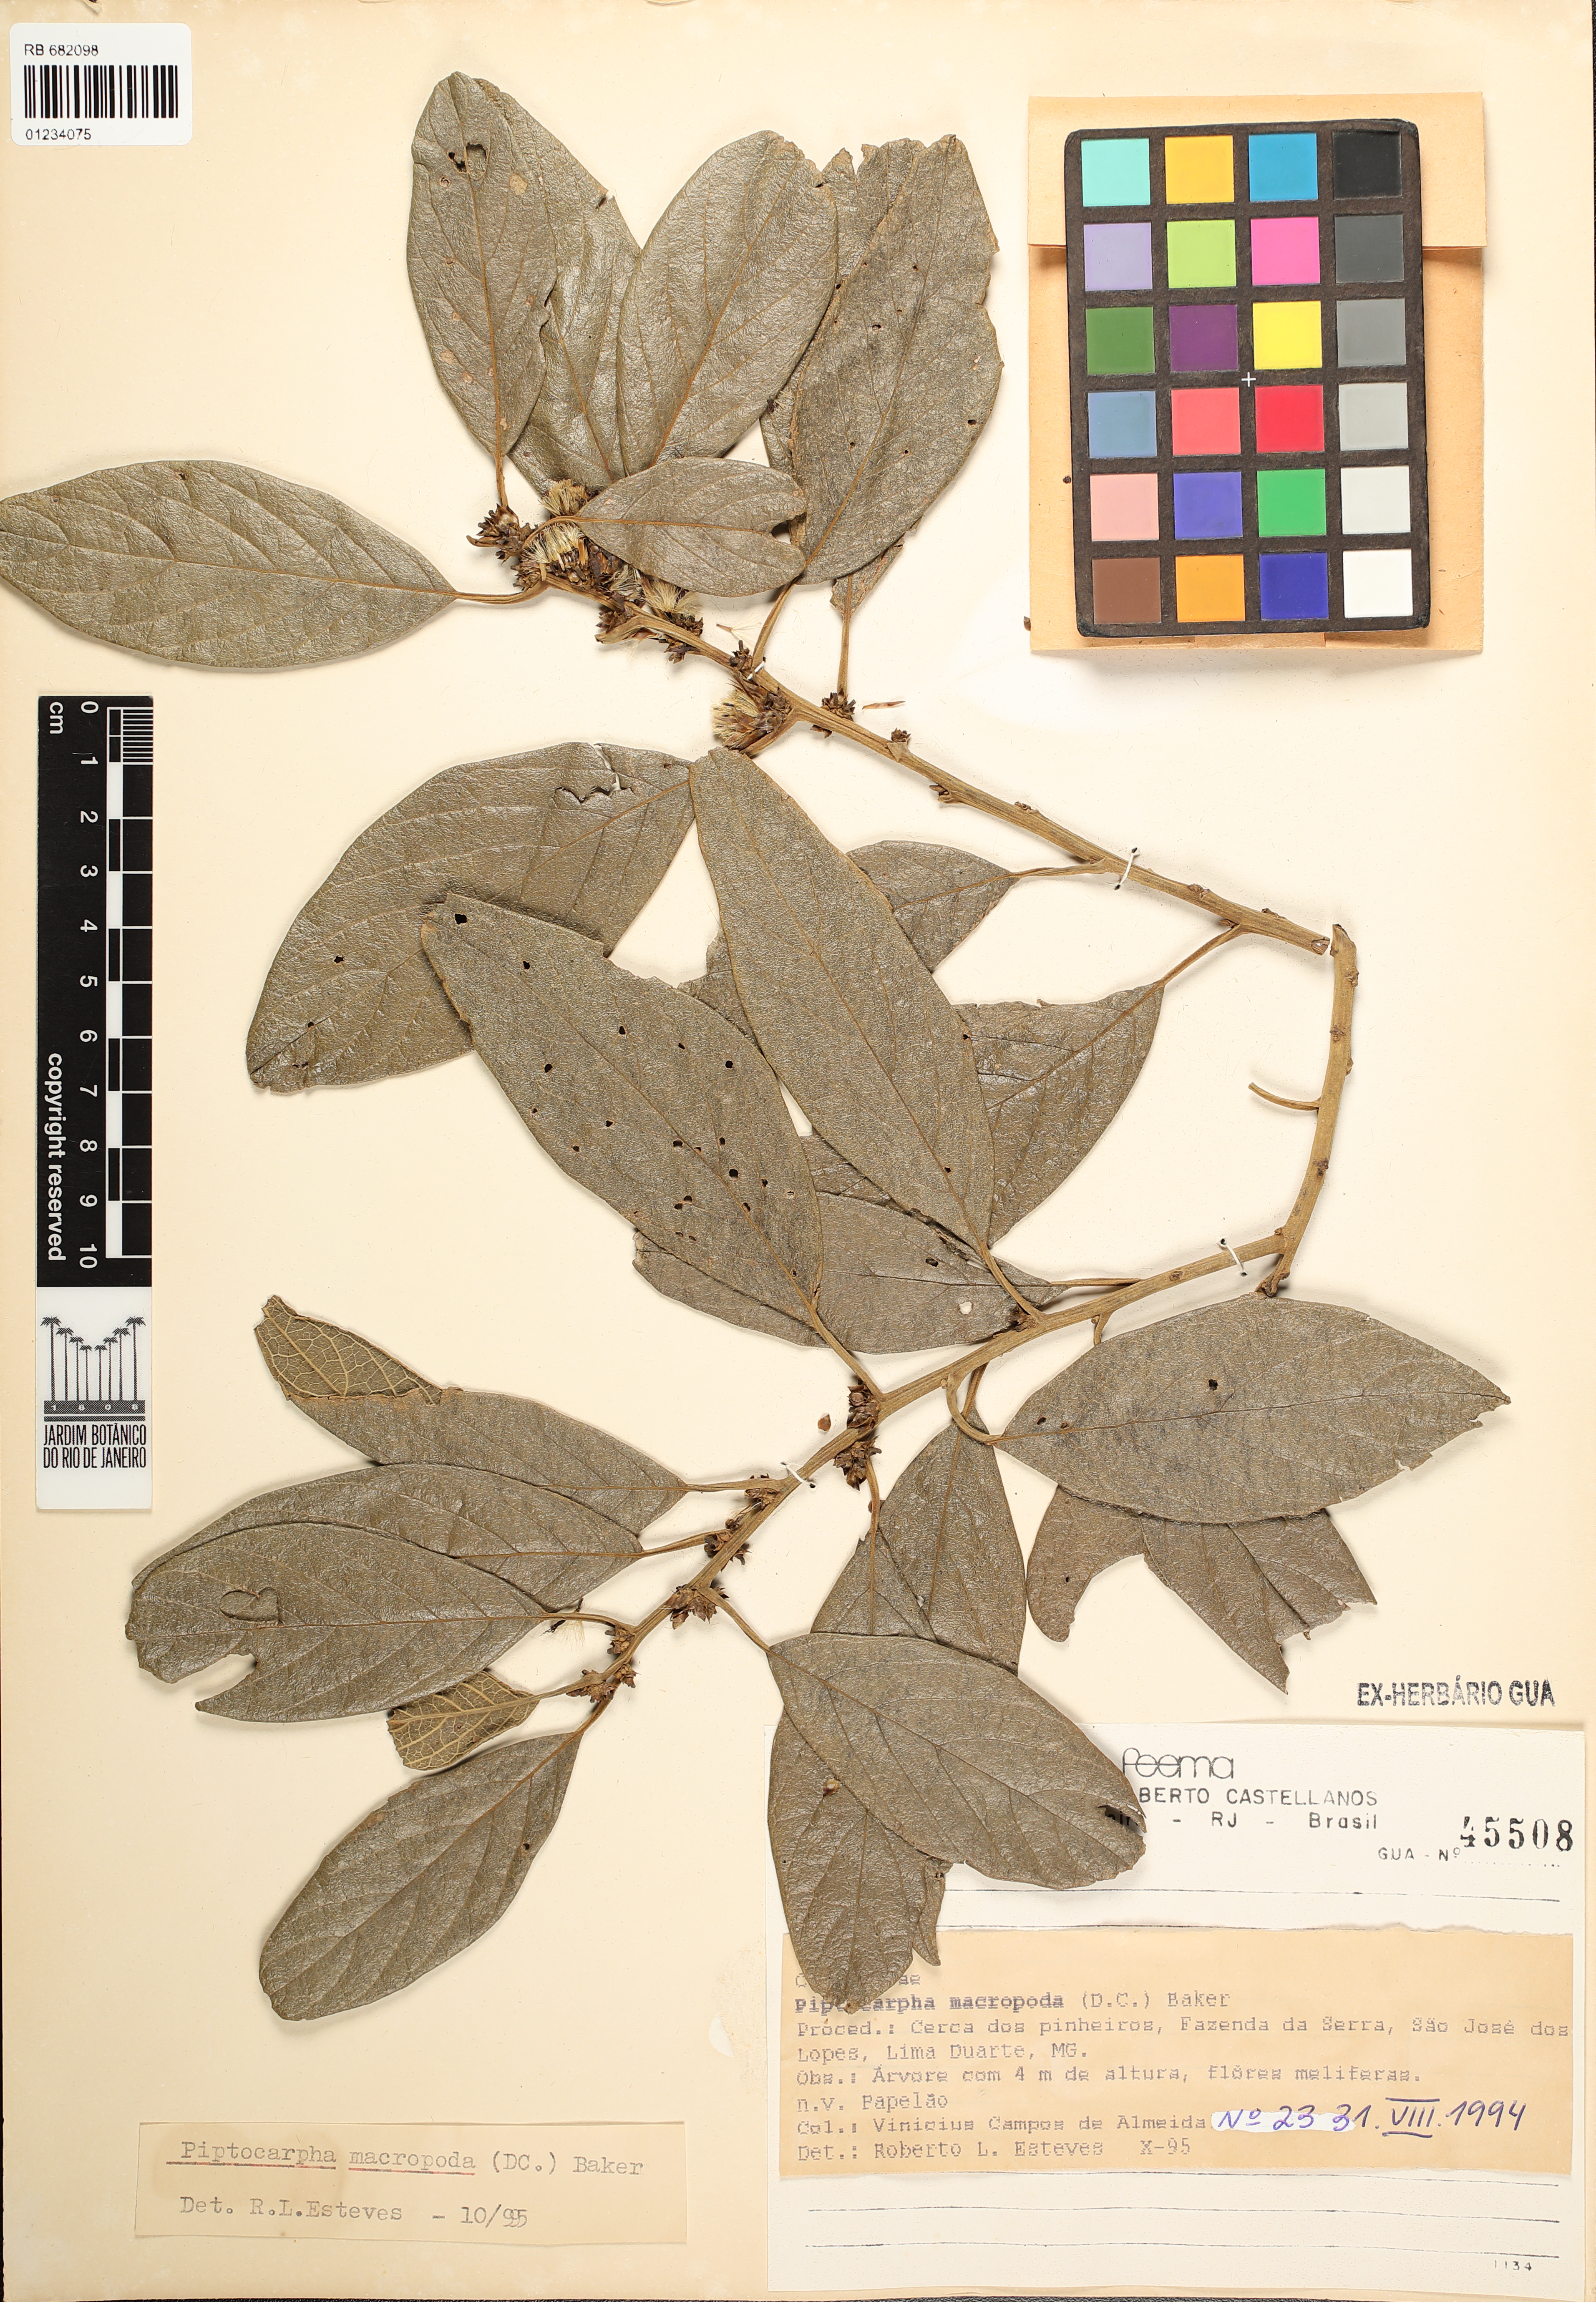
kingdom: Plantae
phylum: Tracheophyta
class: Magnoliopsida
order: Asterales
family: Asteraceae
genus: Piptocarpha
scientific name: Piptocarpha macropoda
